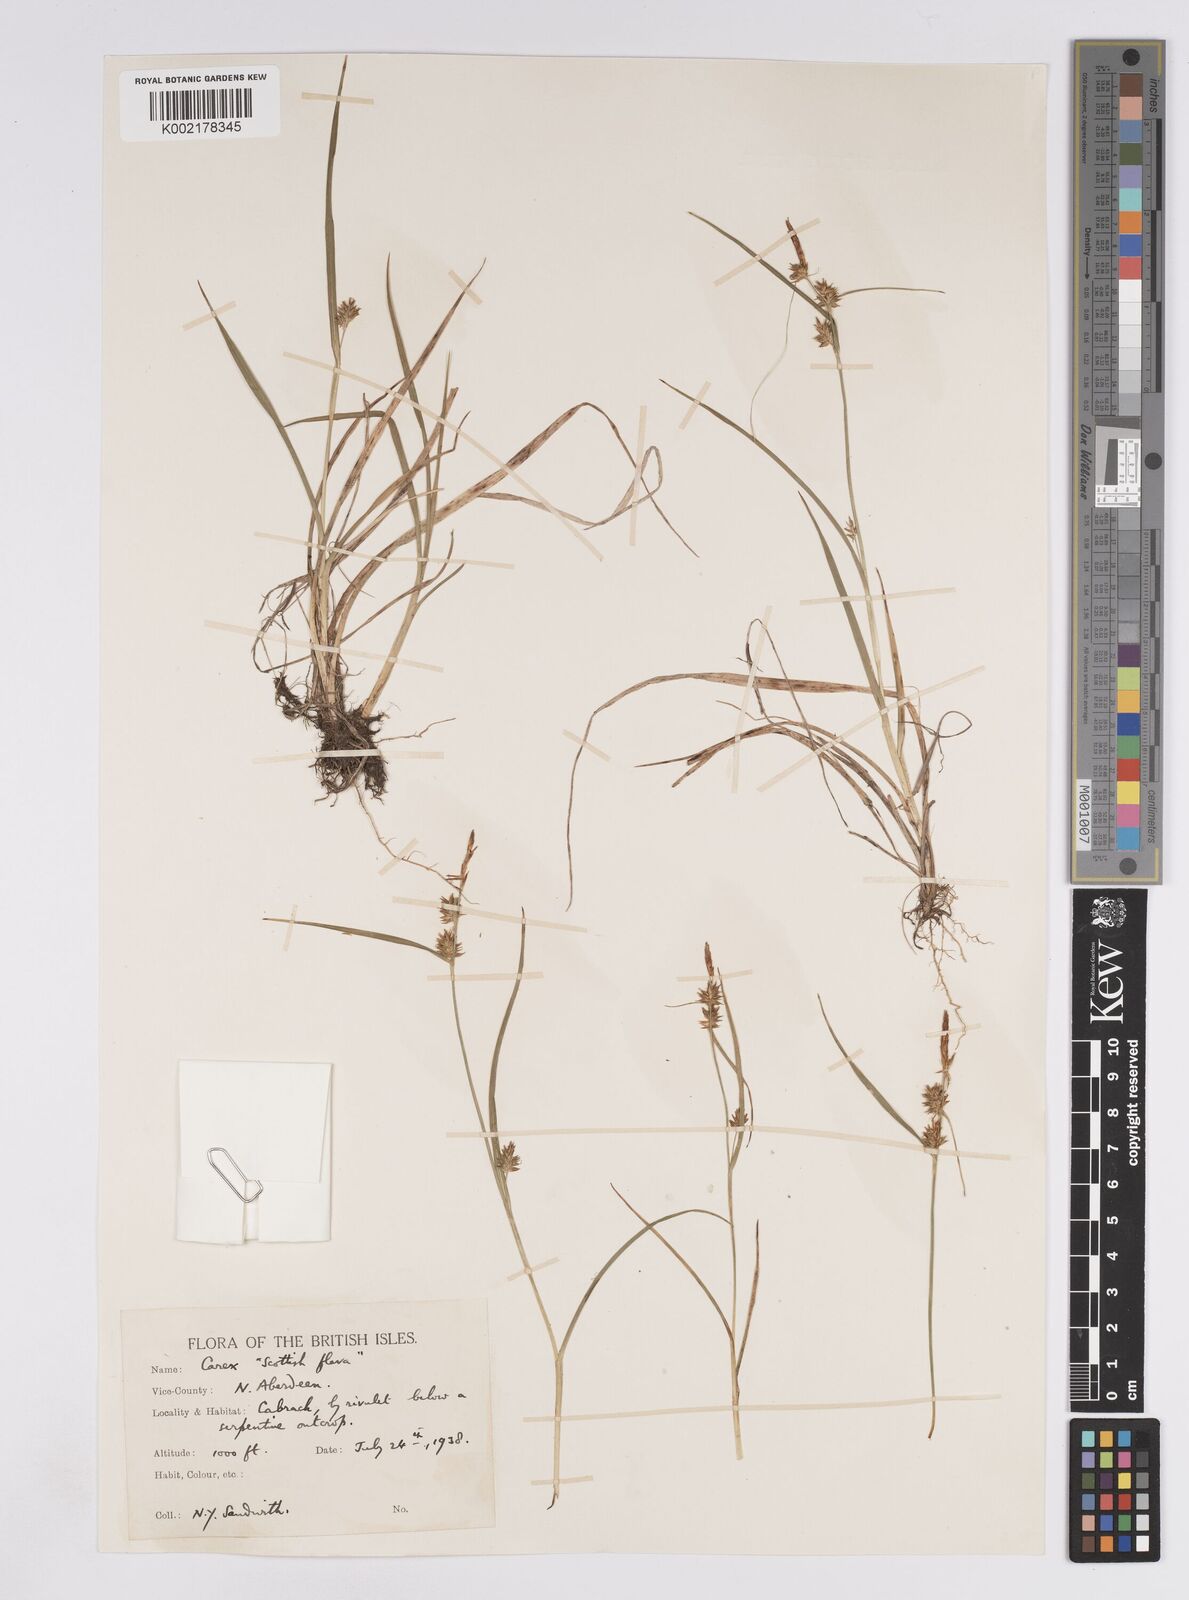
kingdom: Plantae
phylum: Tracheophyta
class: Liliopsida
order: Poales
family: Cyperaceae
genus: Carex
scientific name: Carex demissa
